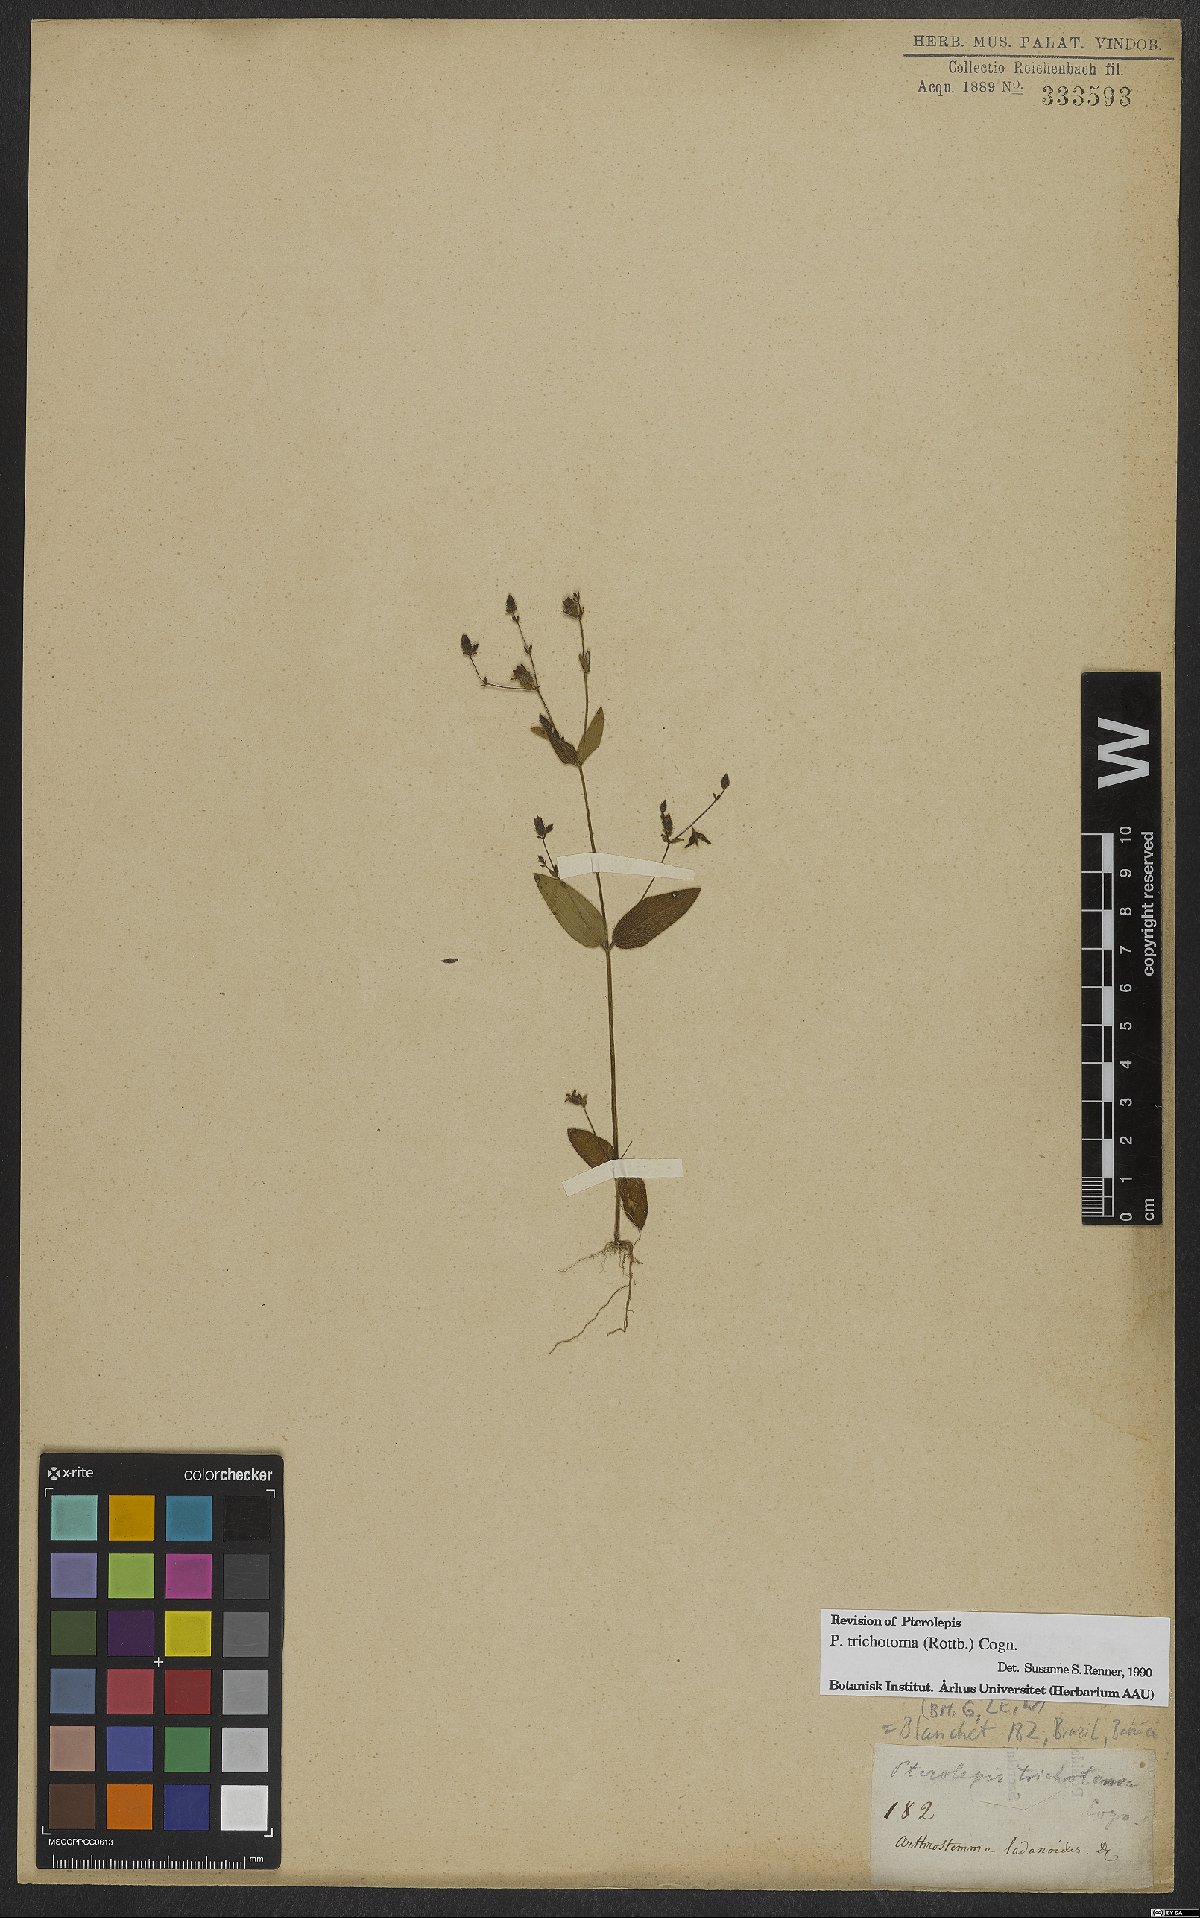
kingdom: Plantae
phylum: Tracheophyta
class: Magnoliopsida
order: Myrtales
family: Melastomataceae
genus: Pterolepis
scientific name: Pterolepis trichotoma
